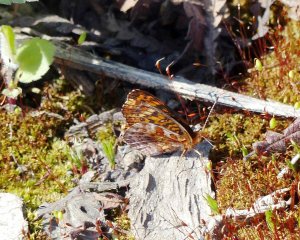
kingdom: Animalia
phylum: Arthropoda
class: Insecta
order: Lepidoptera
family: Nymphalidae
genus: Clossiana
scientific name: Clossiana toddi
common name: Meadow Fritillary
